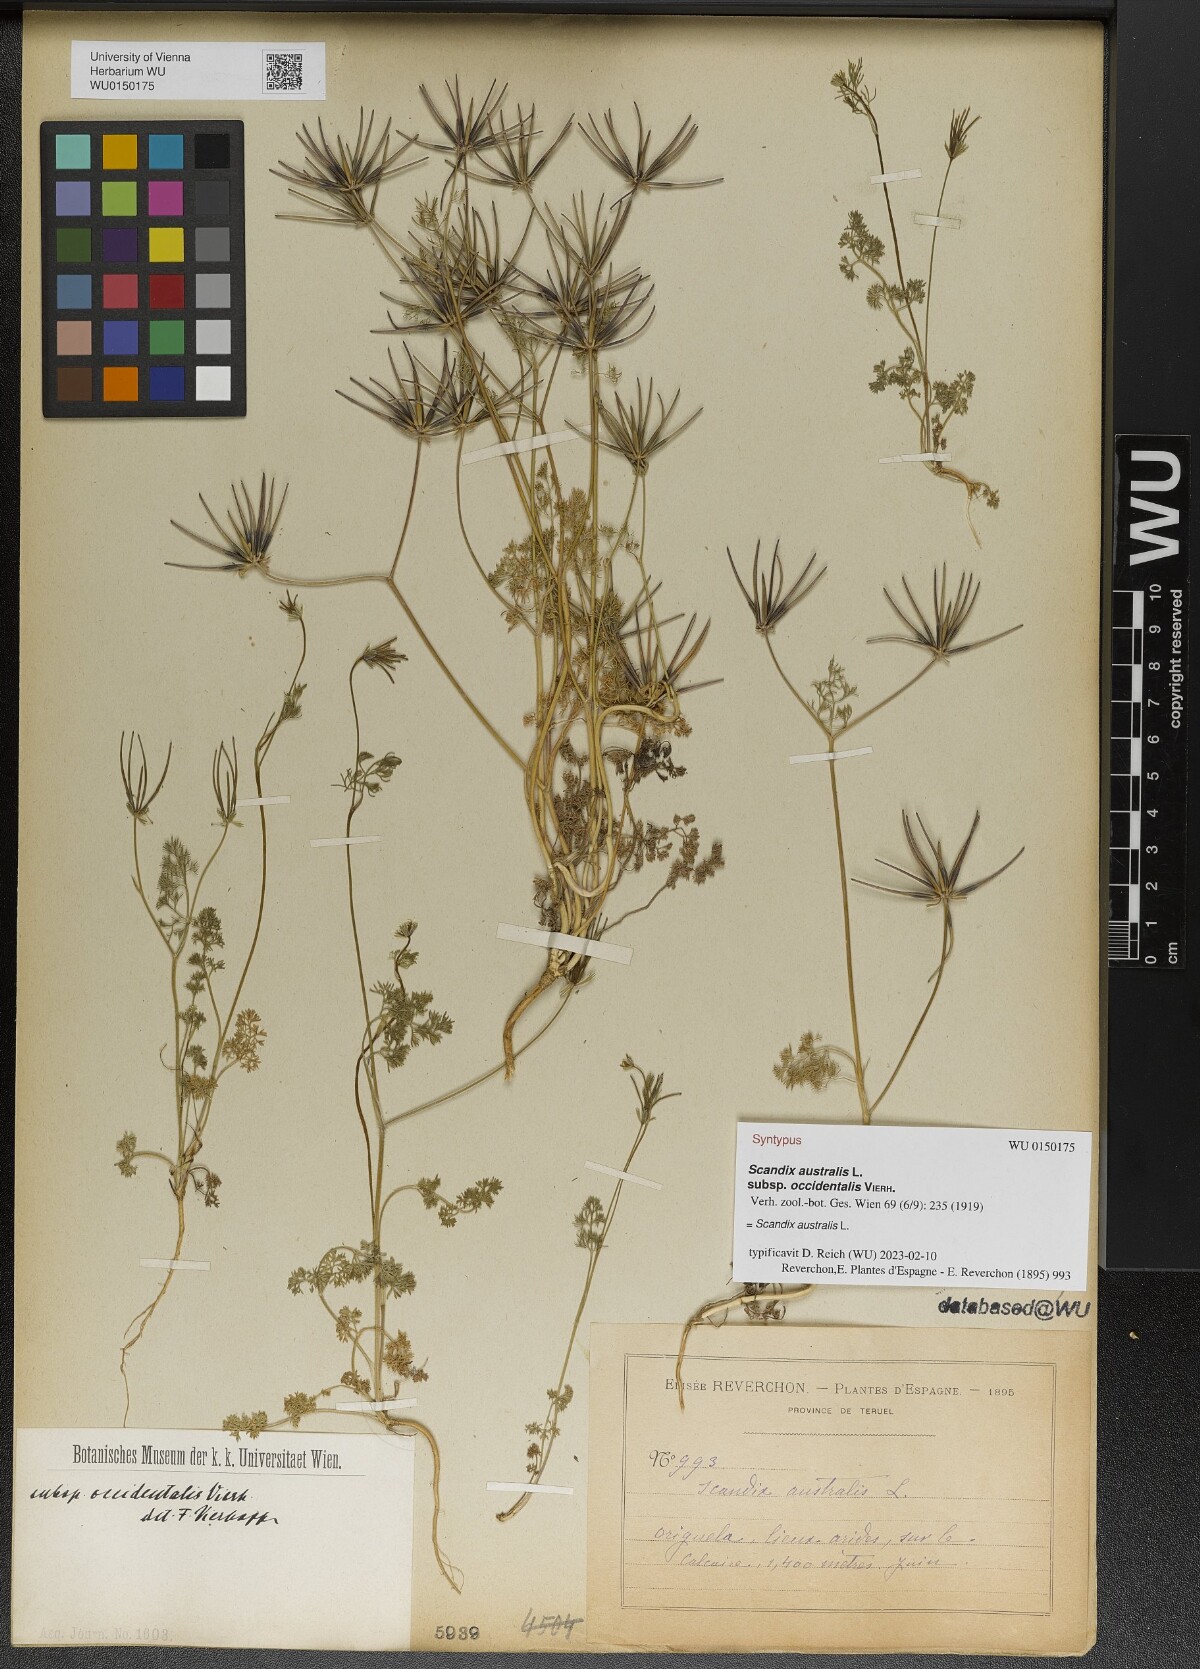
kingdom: Plantae
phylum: Tracheophyta
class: Magnoliopsida
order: Apiales
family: Apiaceae
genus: Scandix
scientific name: Scandix australis
